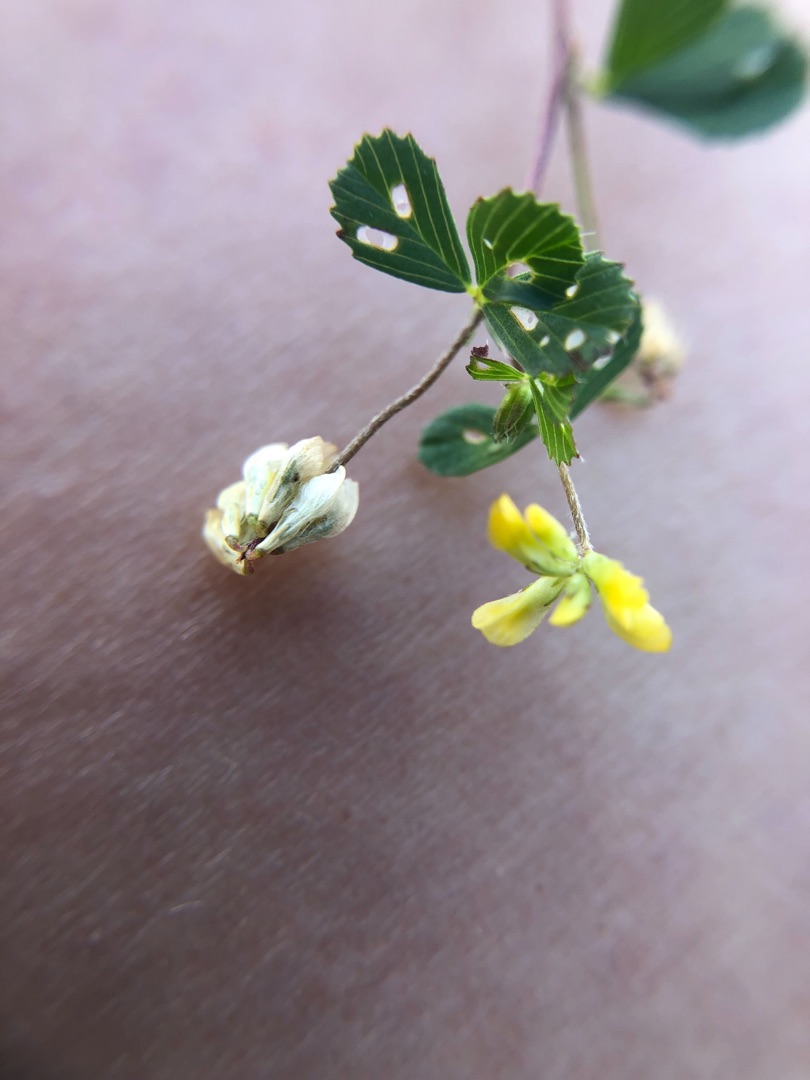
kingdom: Plantae
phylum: Tracheophyta
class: Magnoliopsida
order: Fabales
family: Fabaceae
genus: Trifolium
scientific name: Trifolium dubium
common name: Fin kløver
